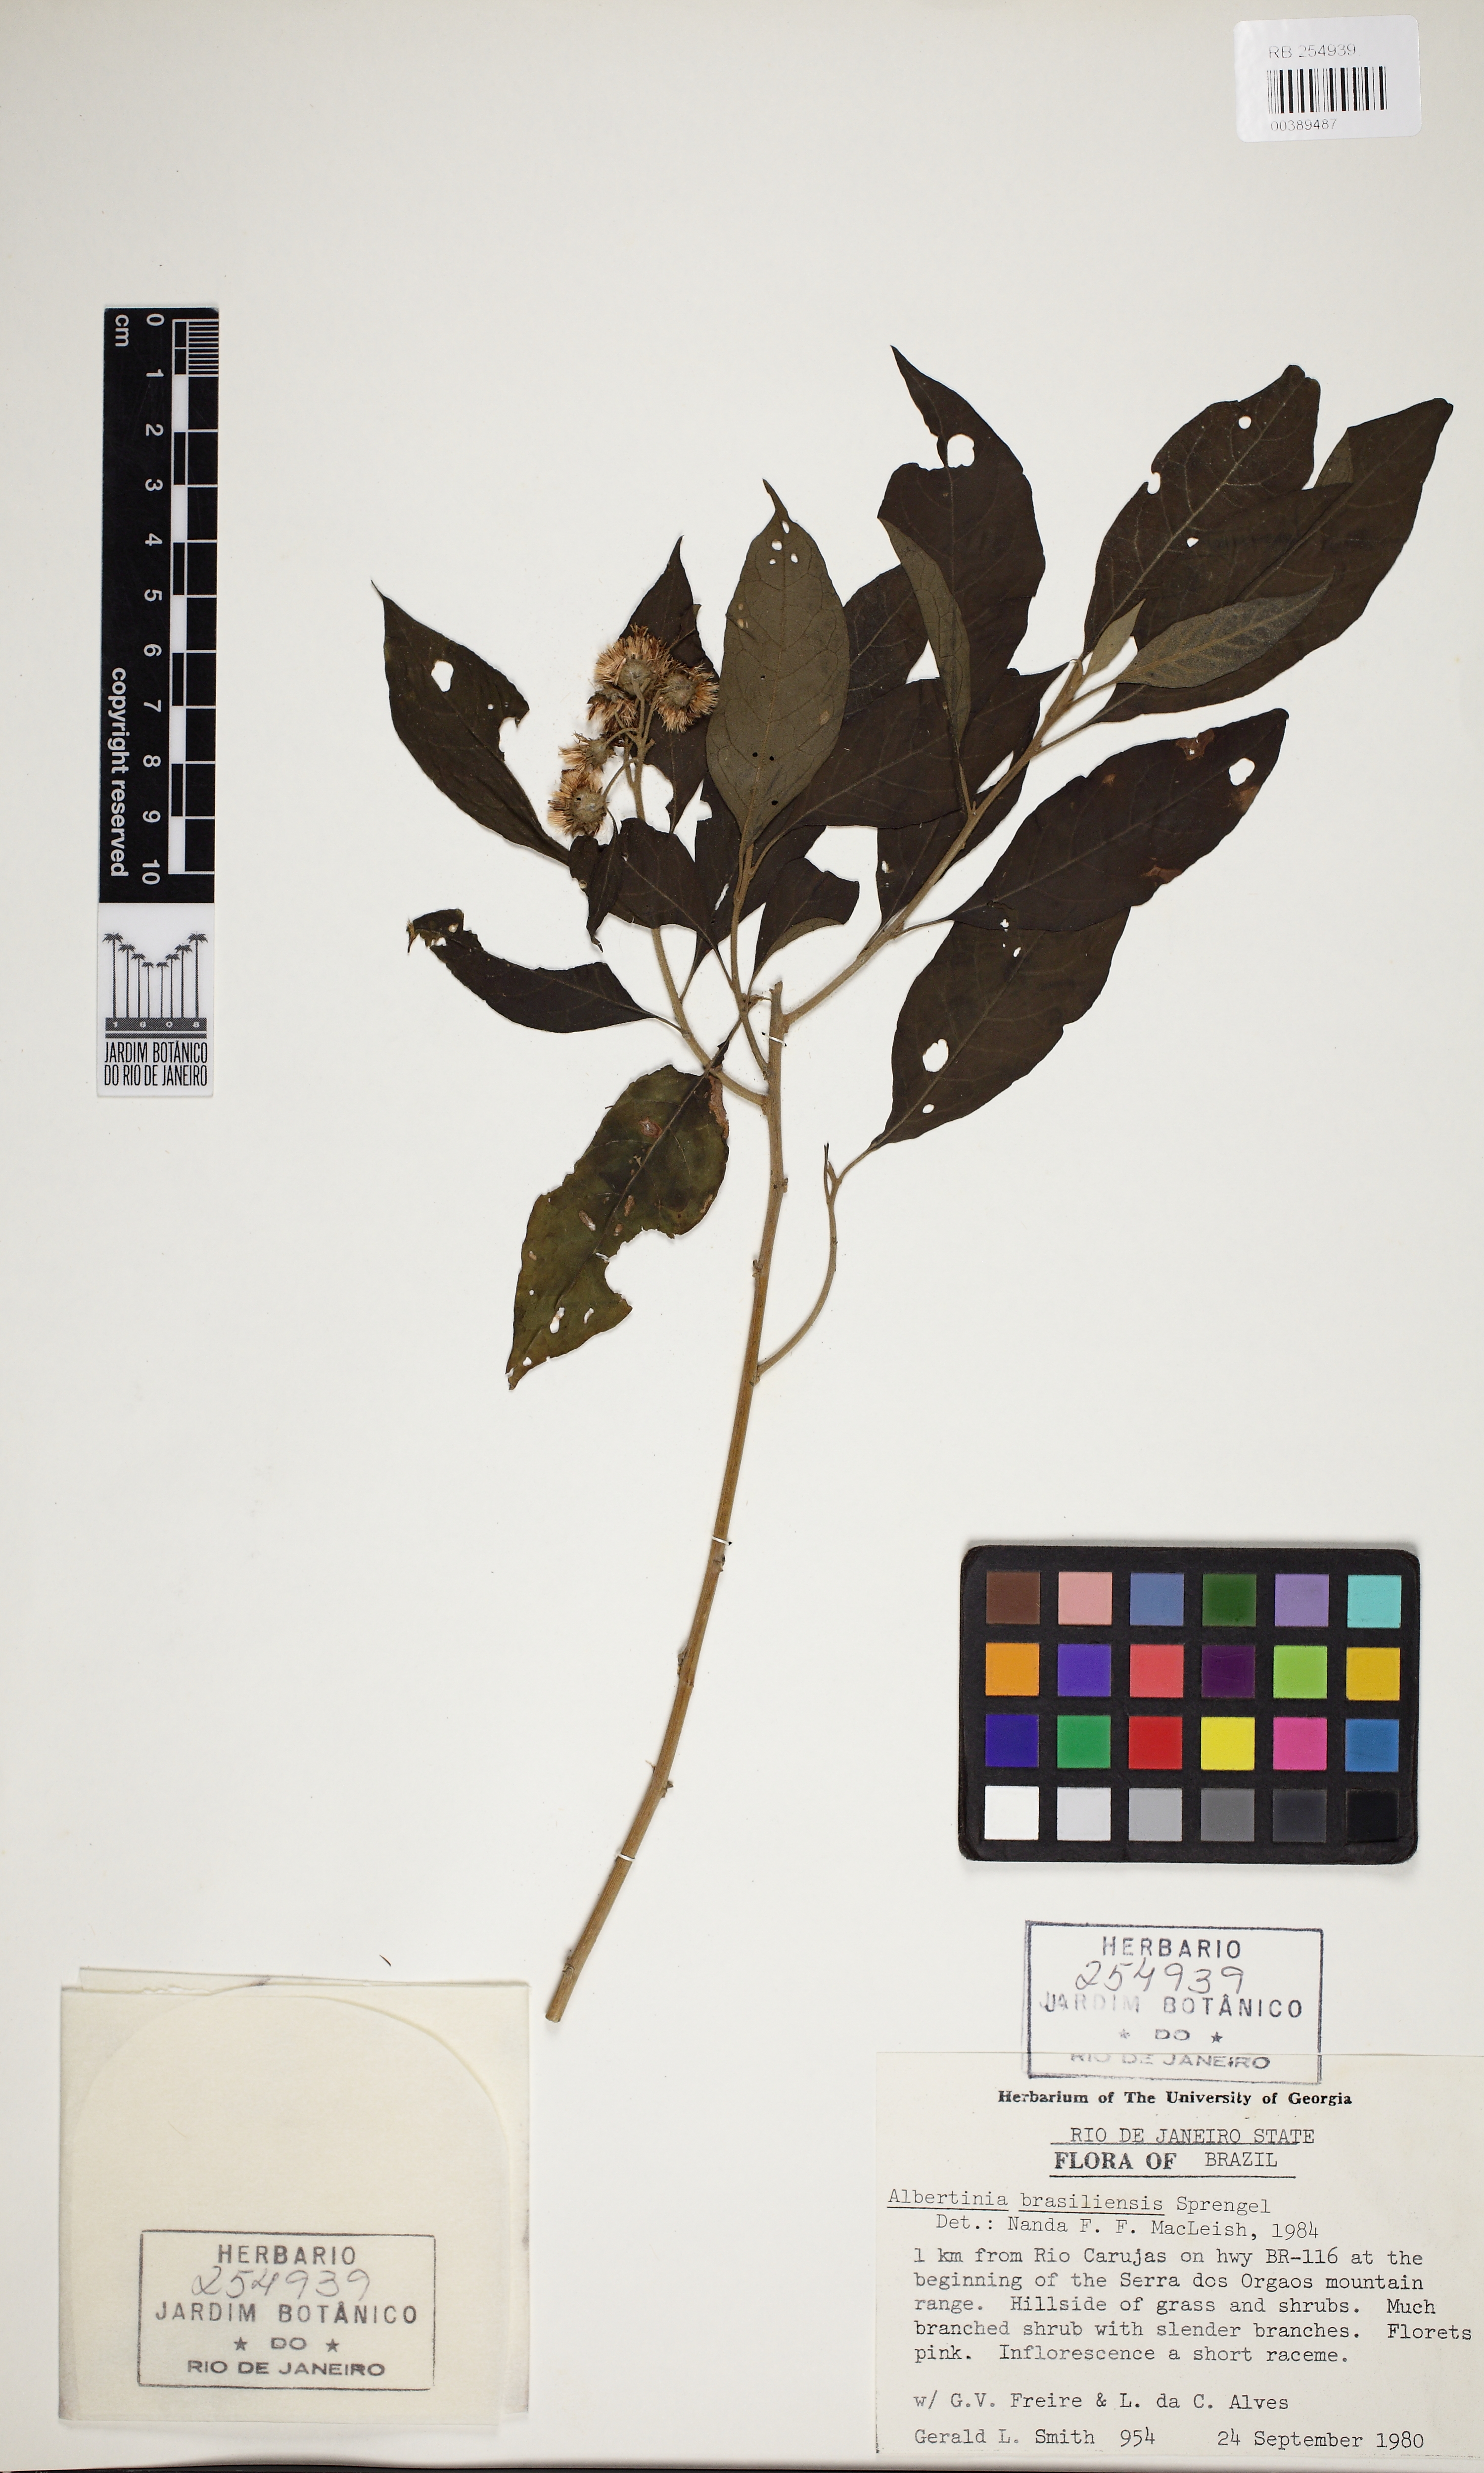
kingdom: Plantae
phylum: Tracheophyta
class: Magnoliopsida
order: Asterales
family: Asteraceae
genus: Albertinia
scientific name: Albertinia brasiliensis
